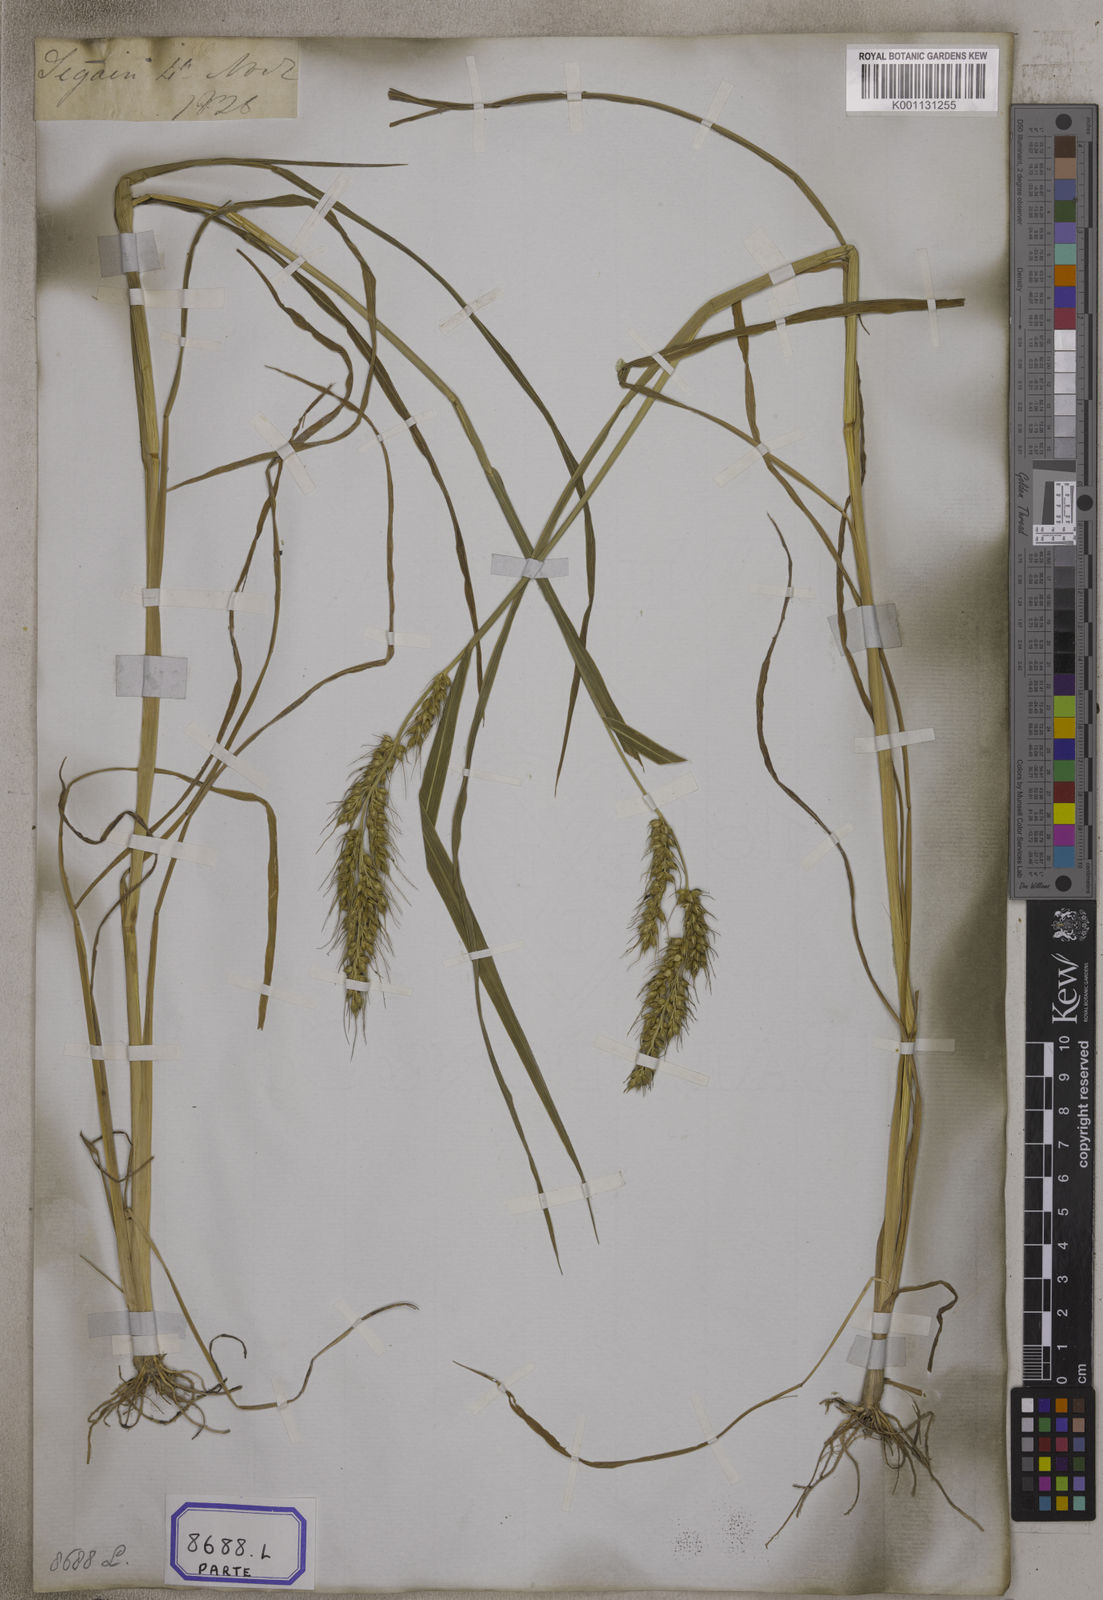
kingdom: Plantae
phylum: Tracheophyta
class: Liliopsida
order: Poales
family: Poaceae
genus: Echinochloa
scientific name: Echinochloa stagnina
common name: Burgu grass
